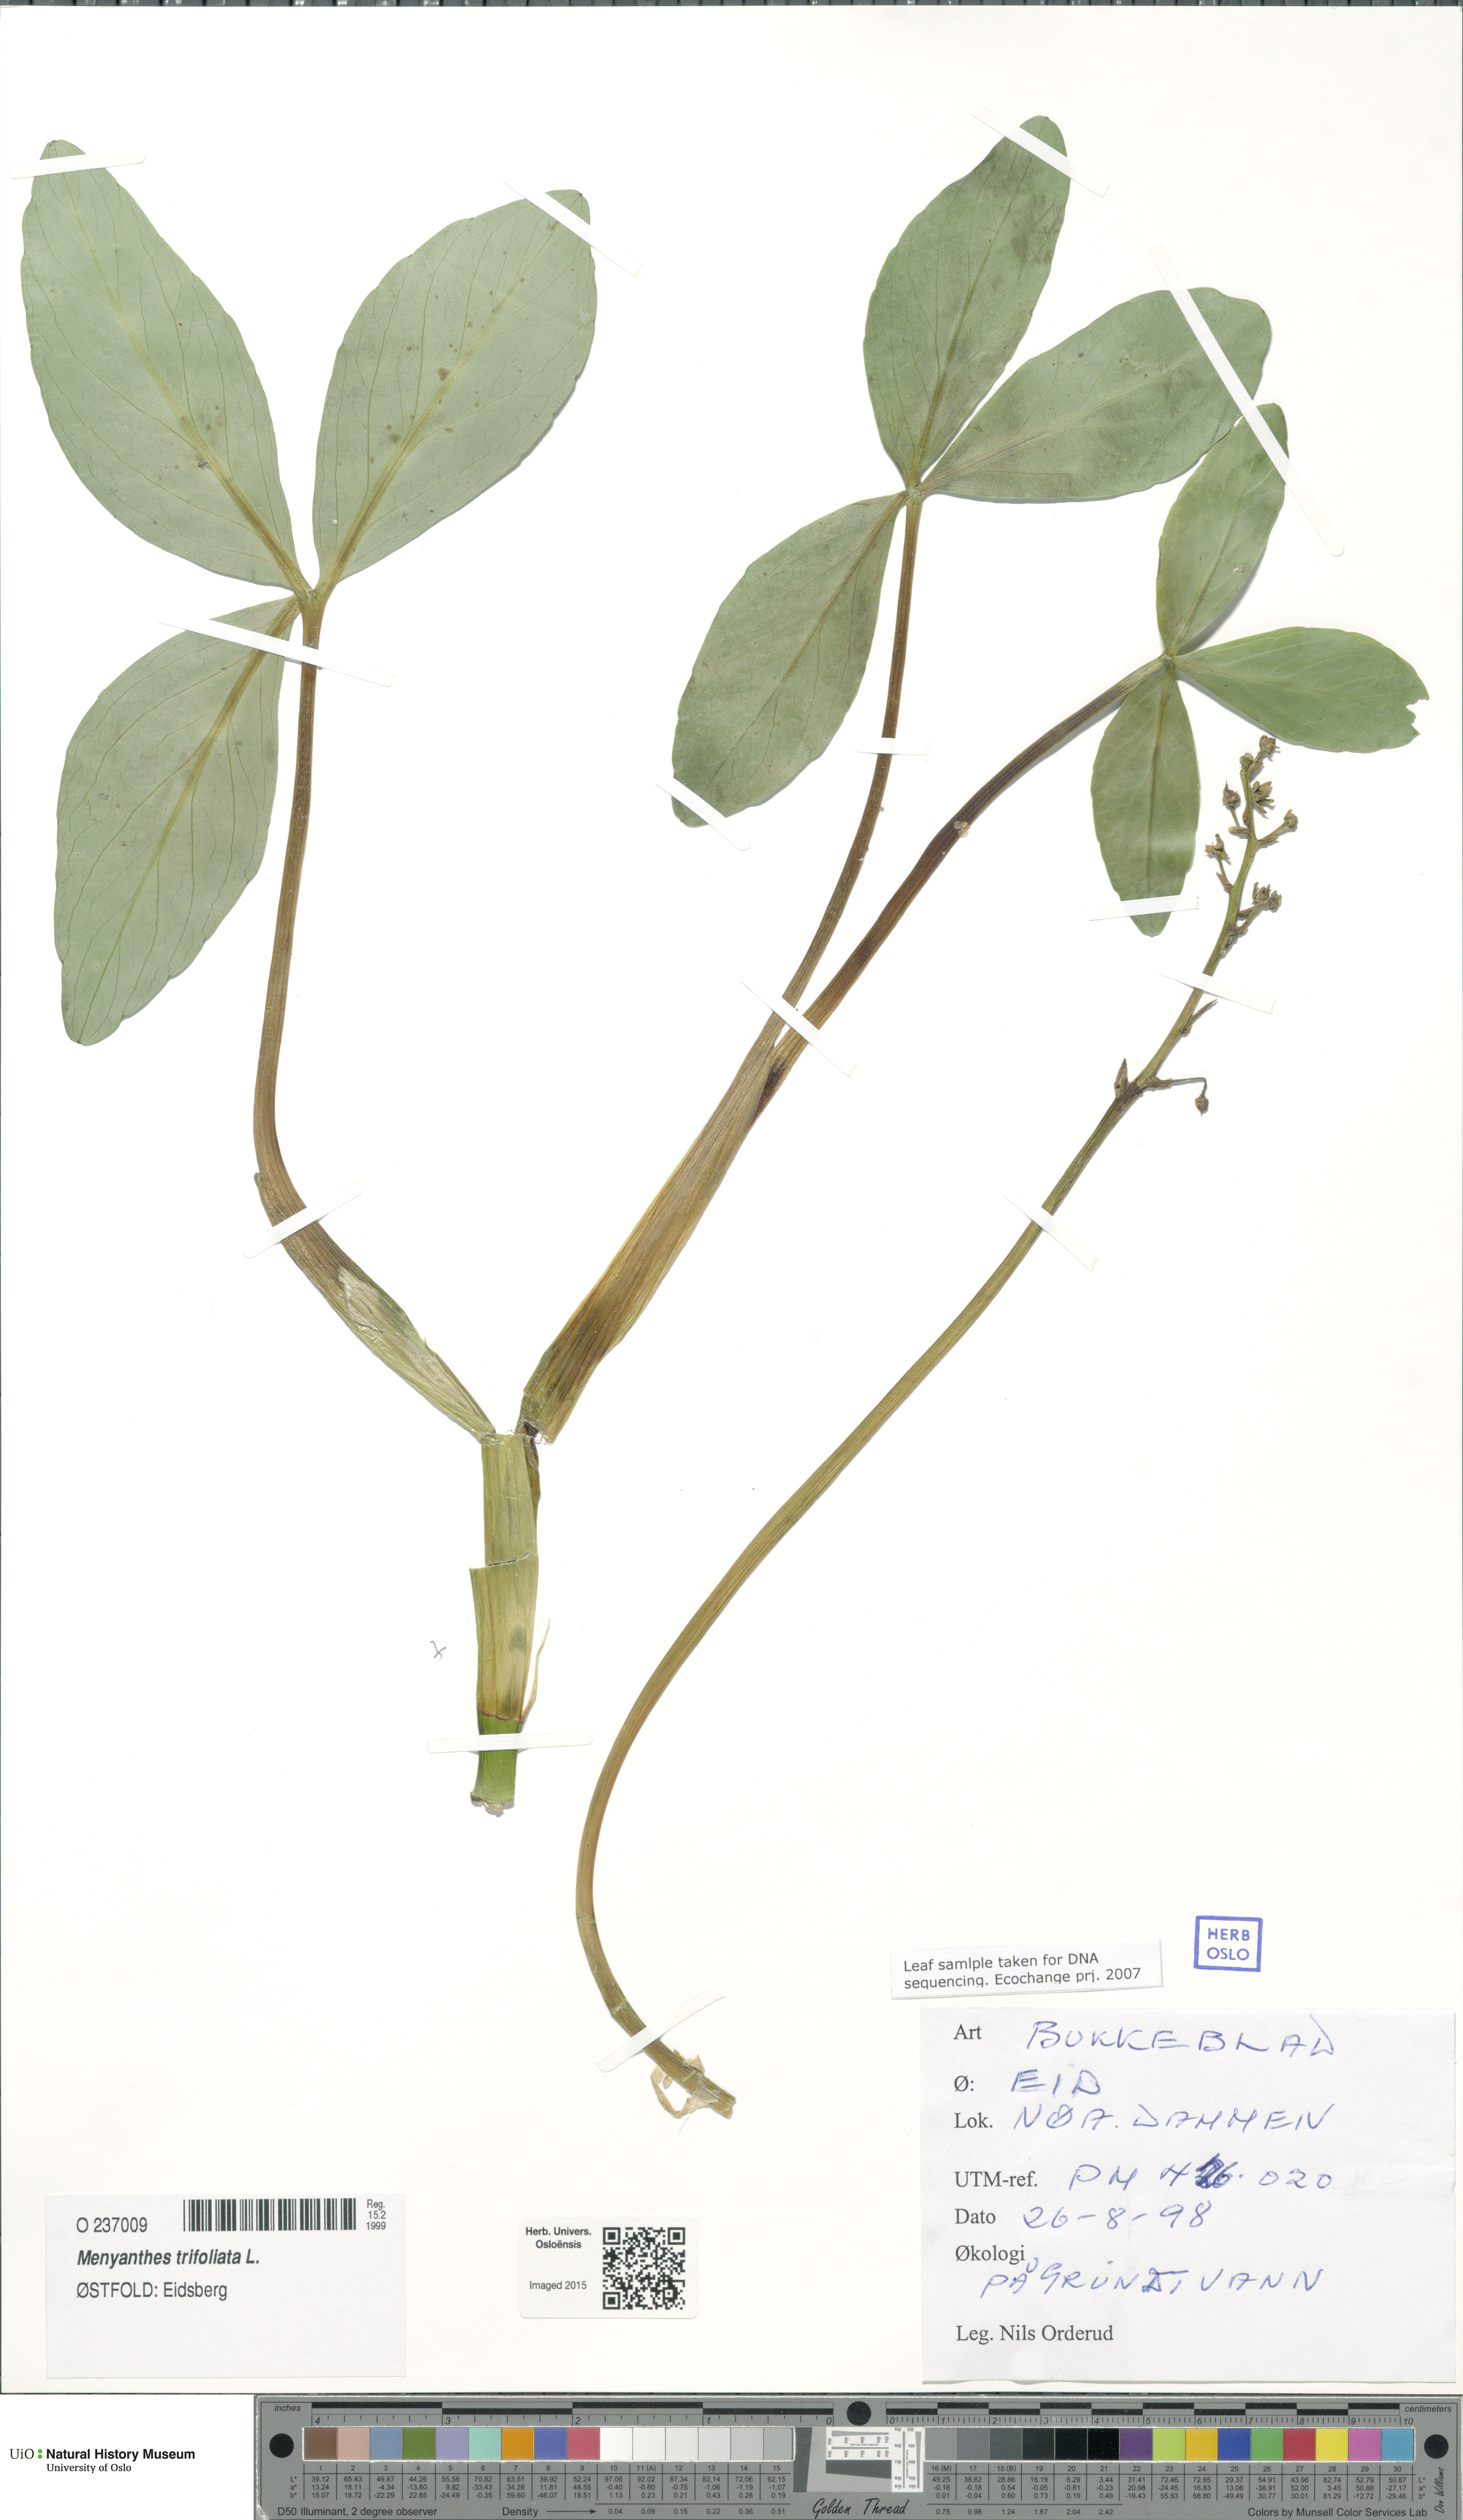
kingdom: Plantae
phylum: Tracheophyta
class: Magnoliopsida
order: Asterales
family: Menyanthaceae
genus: Menyanthes
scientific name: Menyanthes trifoliata
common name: Bogbean
